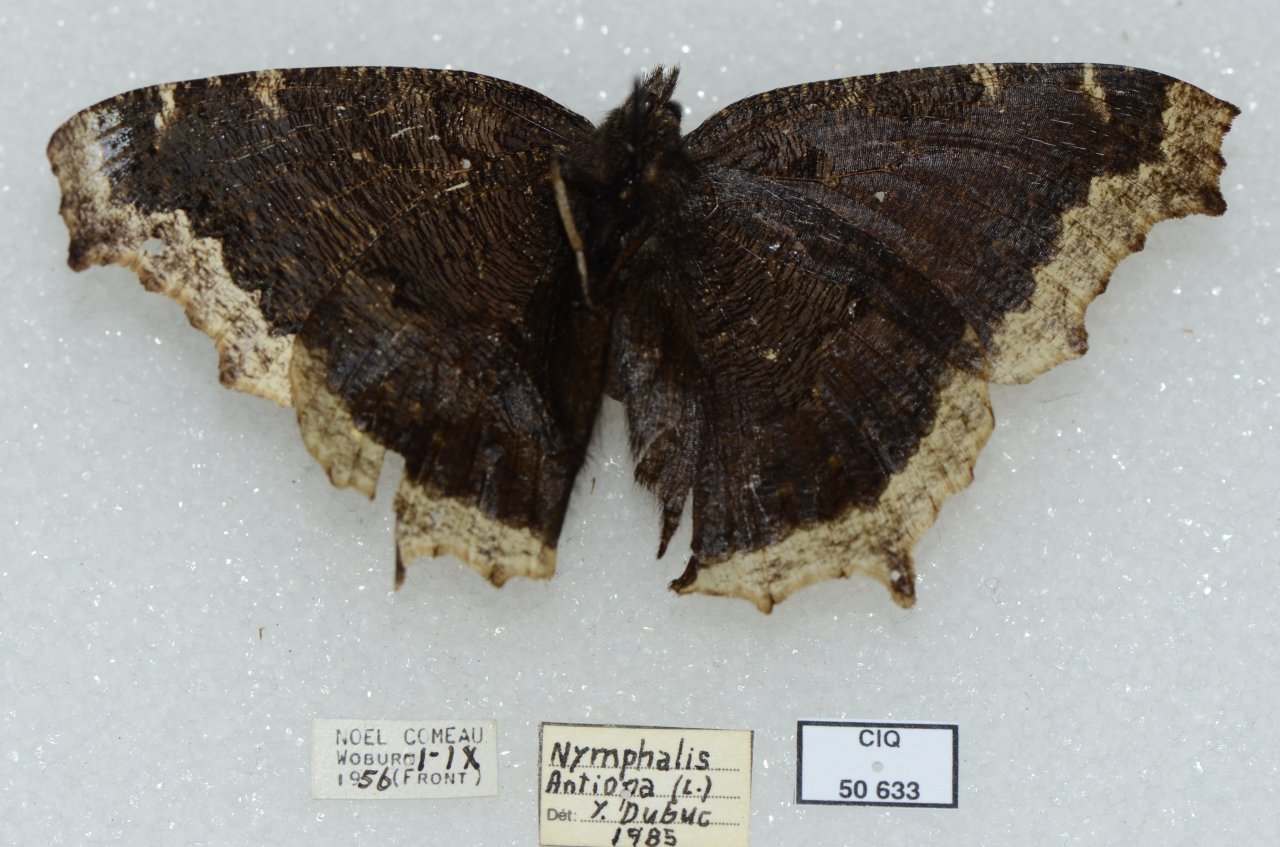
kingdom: Animalia
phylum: Arthropoda
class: Insecta
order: Lepidoptera
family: Nymphalidae
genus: Nymphalis
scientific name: Nymphalis antiopa
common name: Mourning Cloak
